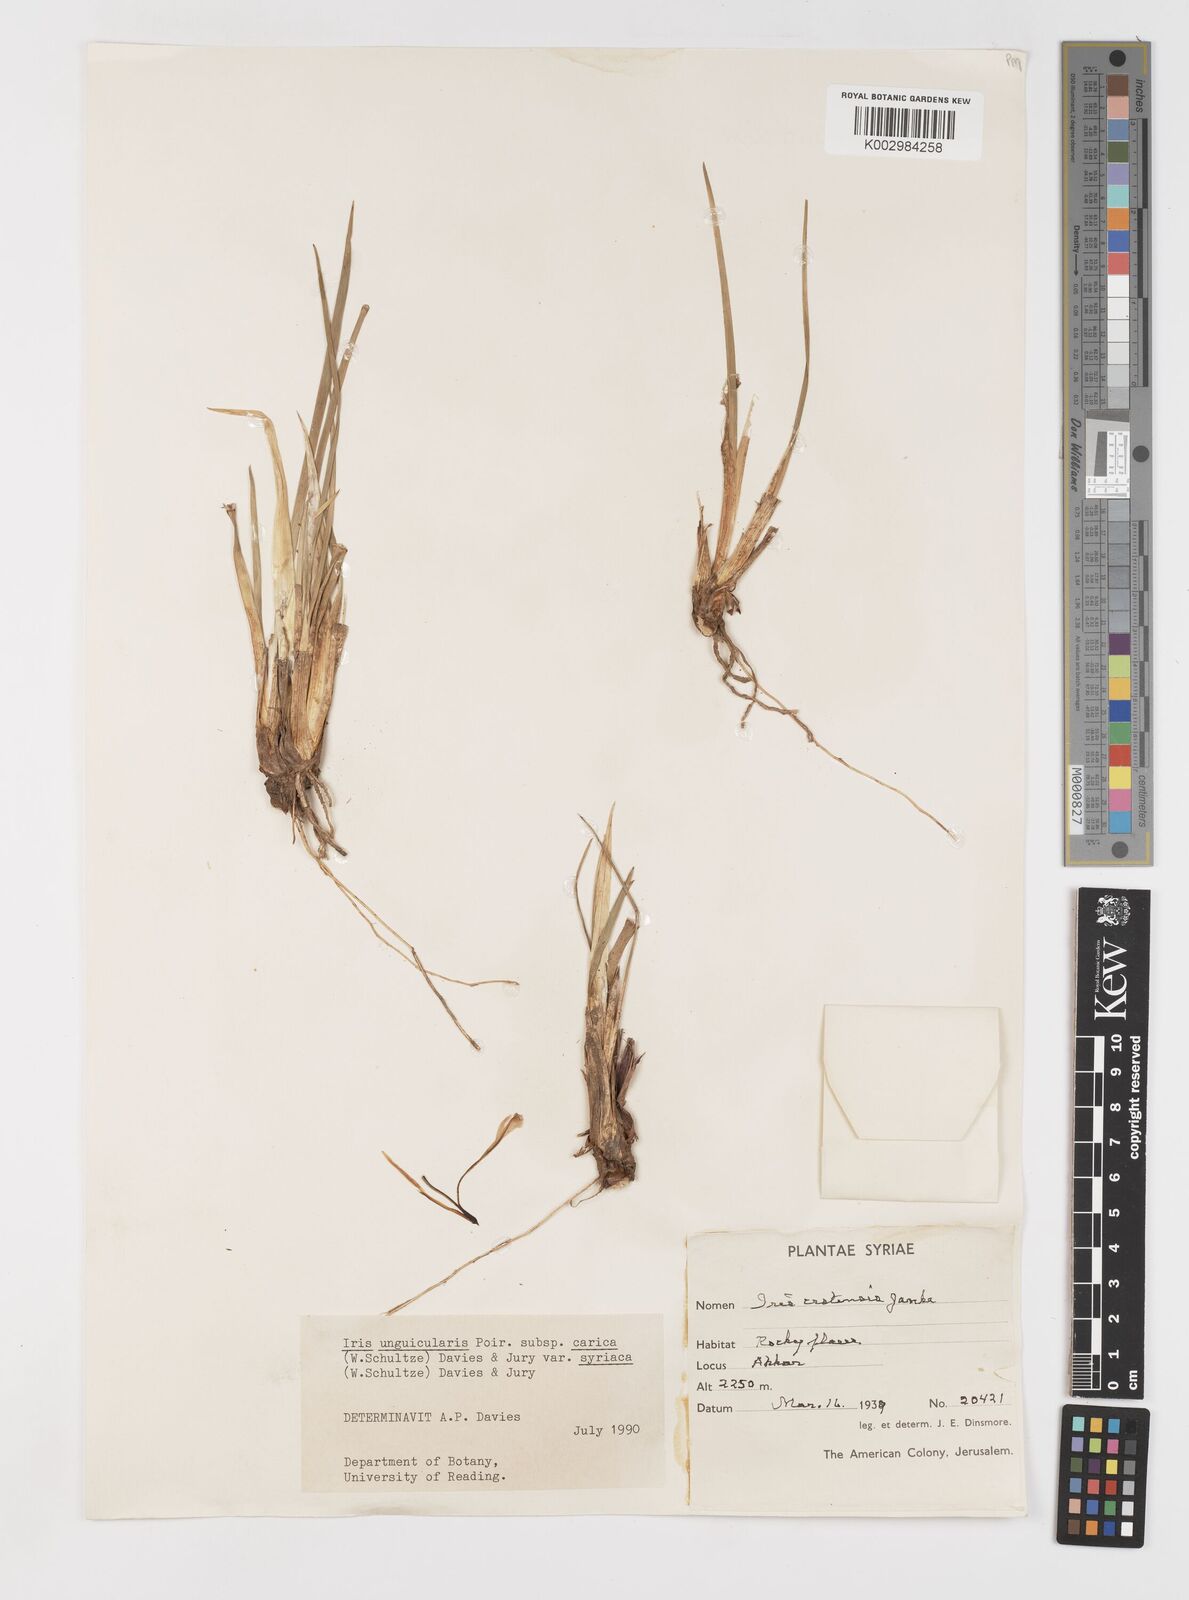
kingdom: Plantae
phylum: Tracheophyta
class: Liliopsida
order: Asparagales
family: Iridaceae
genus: Iris
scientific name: Iris unguicularis
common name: Algerian iris
